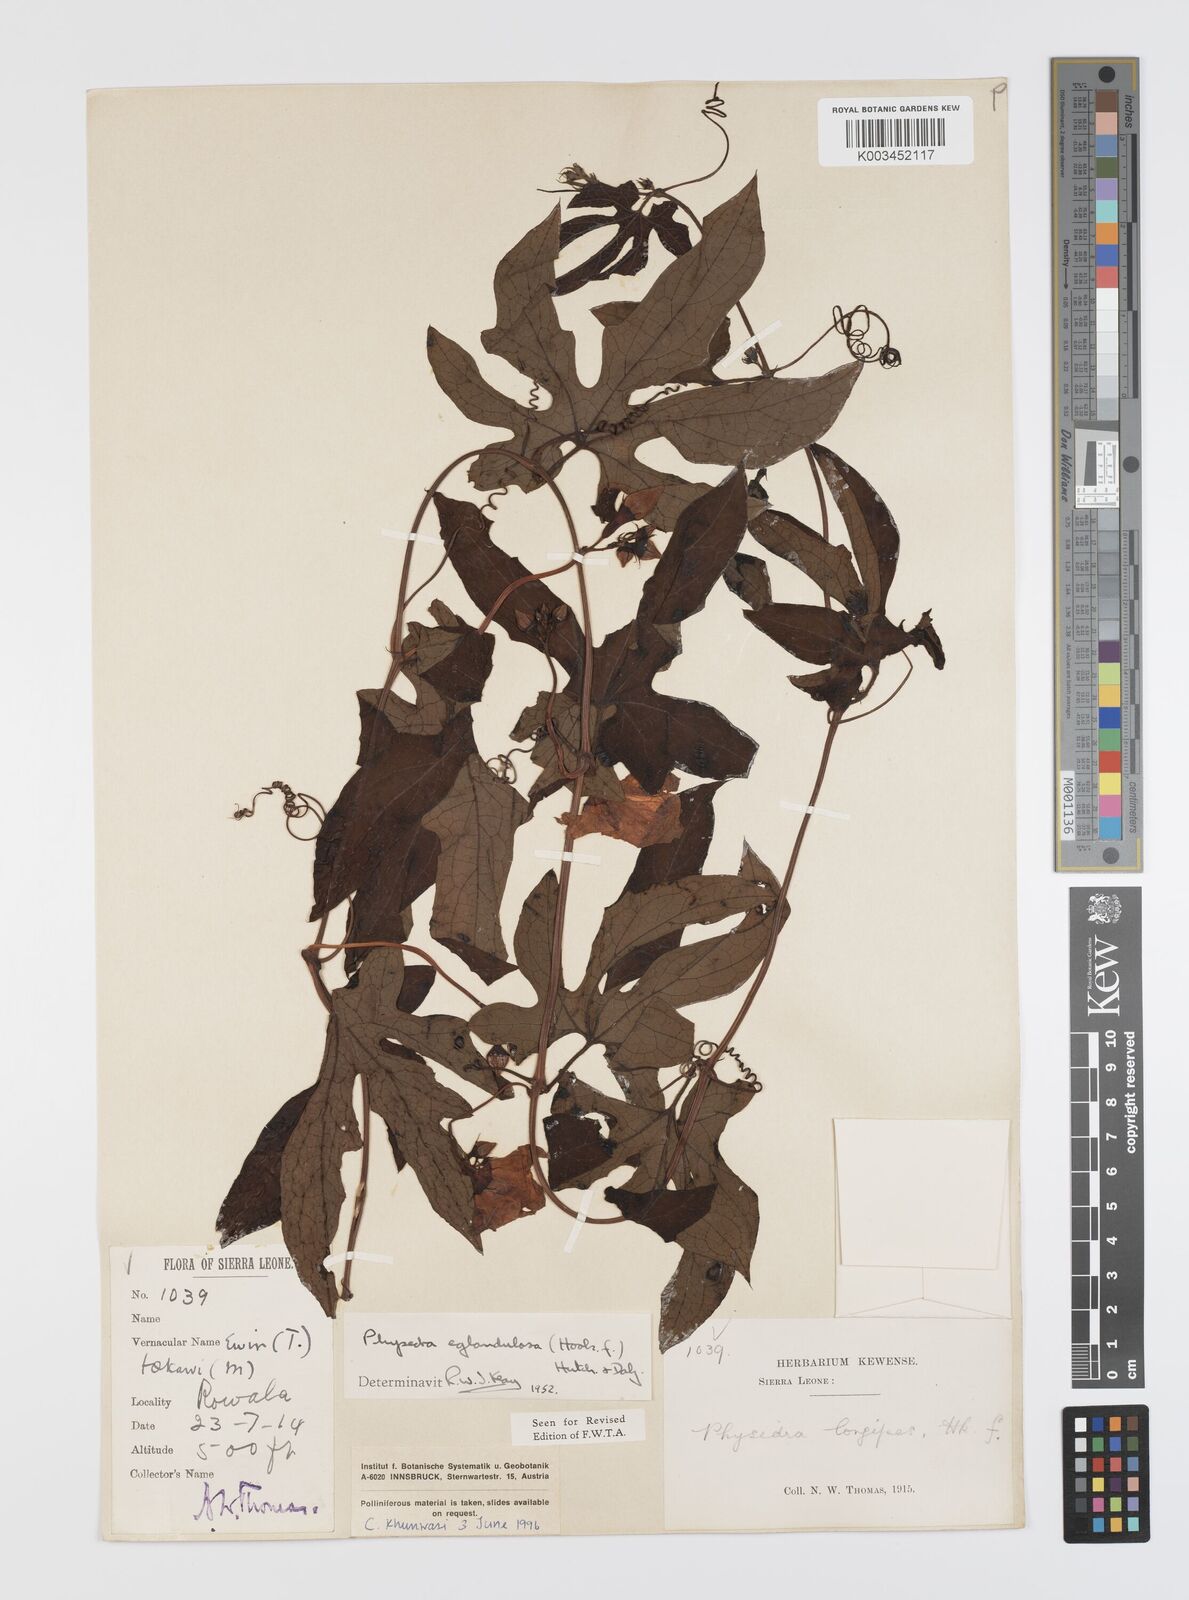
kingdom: Plantae
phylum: Tracheophyta
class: Magnoliopsida
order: Cucurbitales
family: Cucurbitaceae
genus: Ruthalicia
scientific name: Ruthalicia eglandulosa
